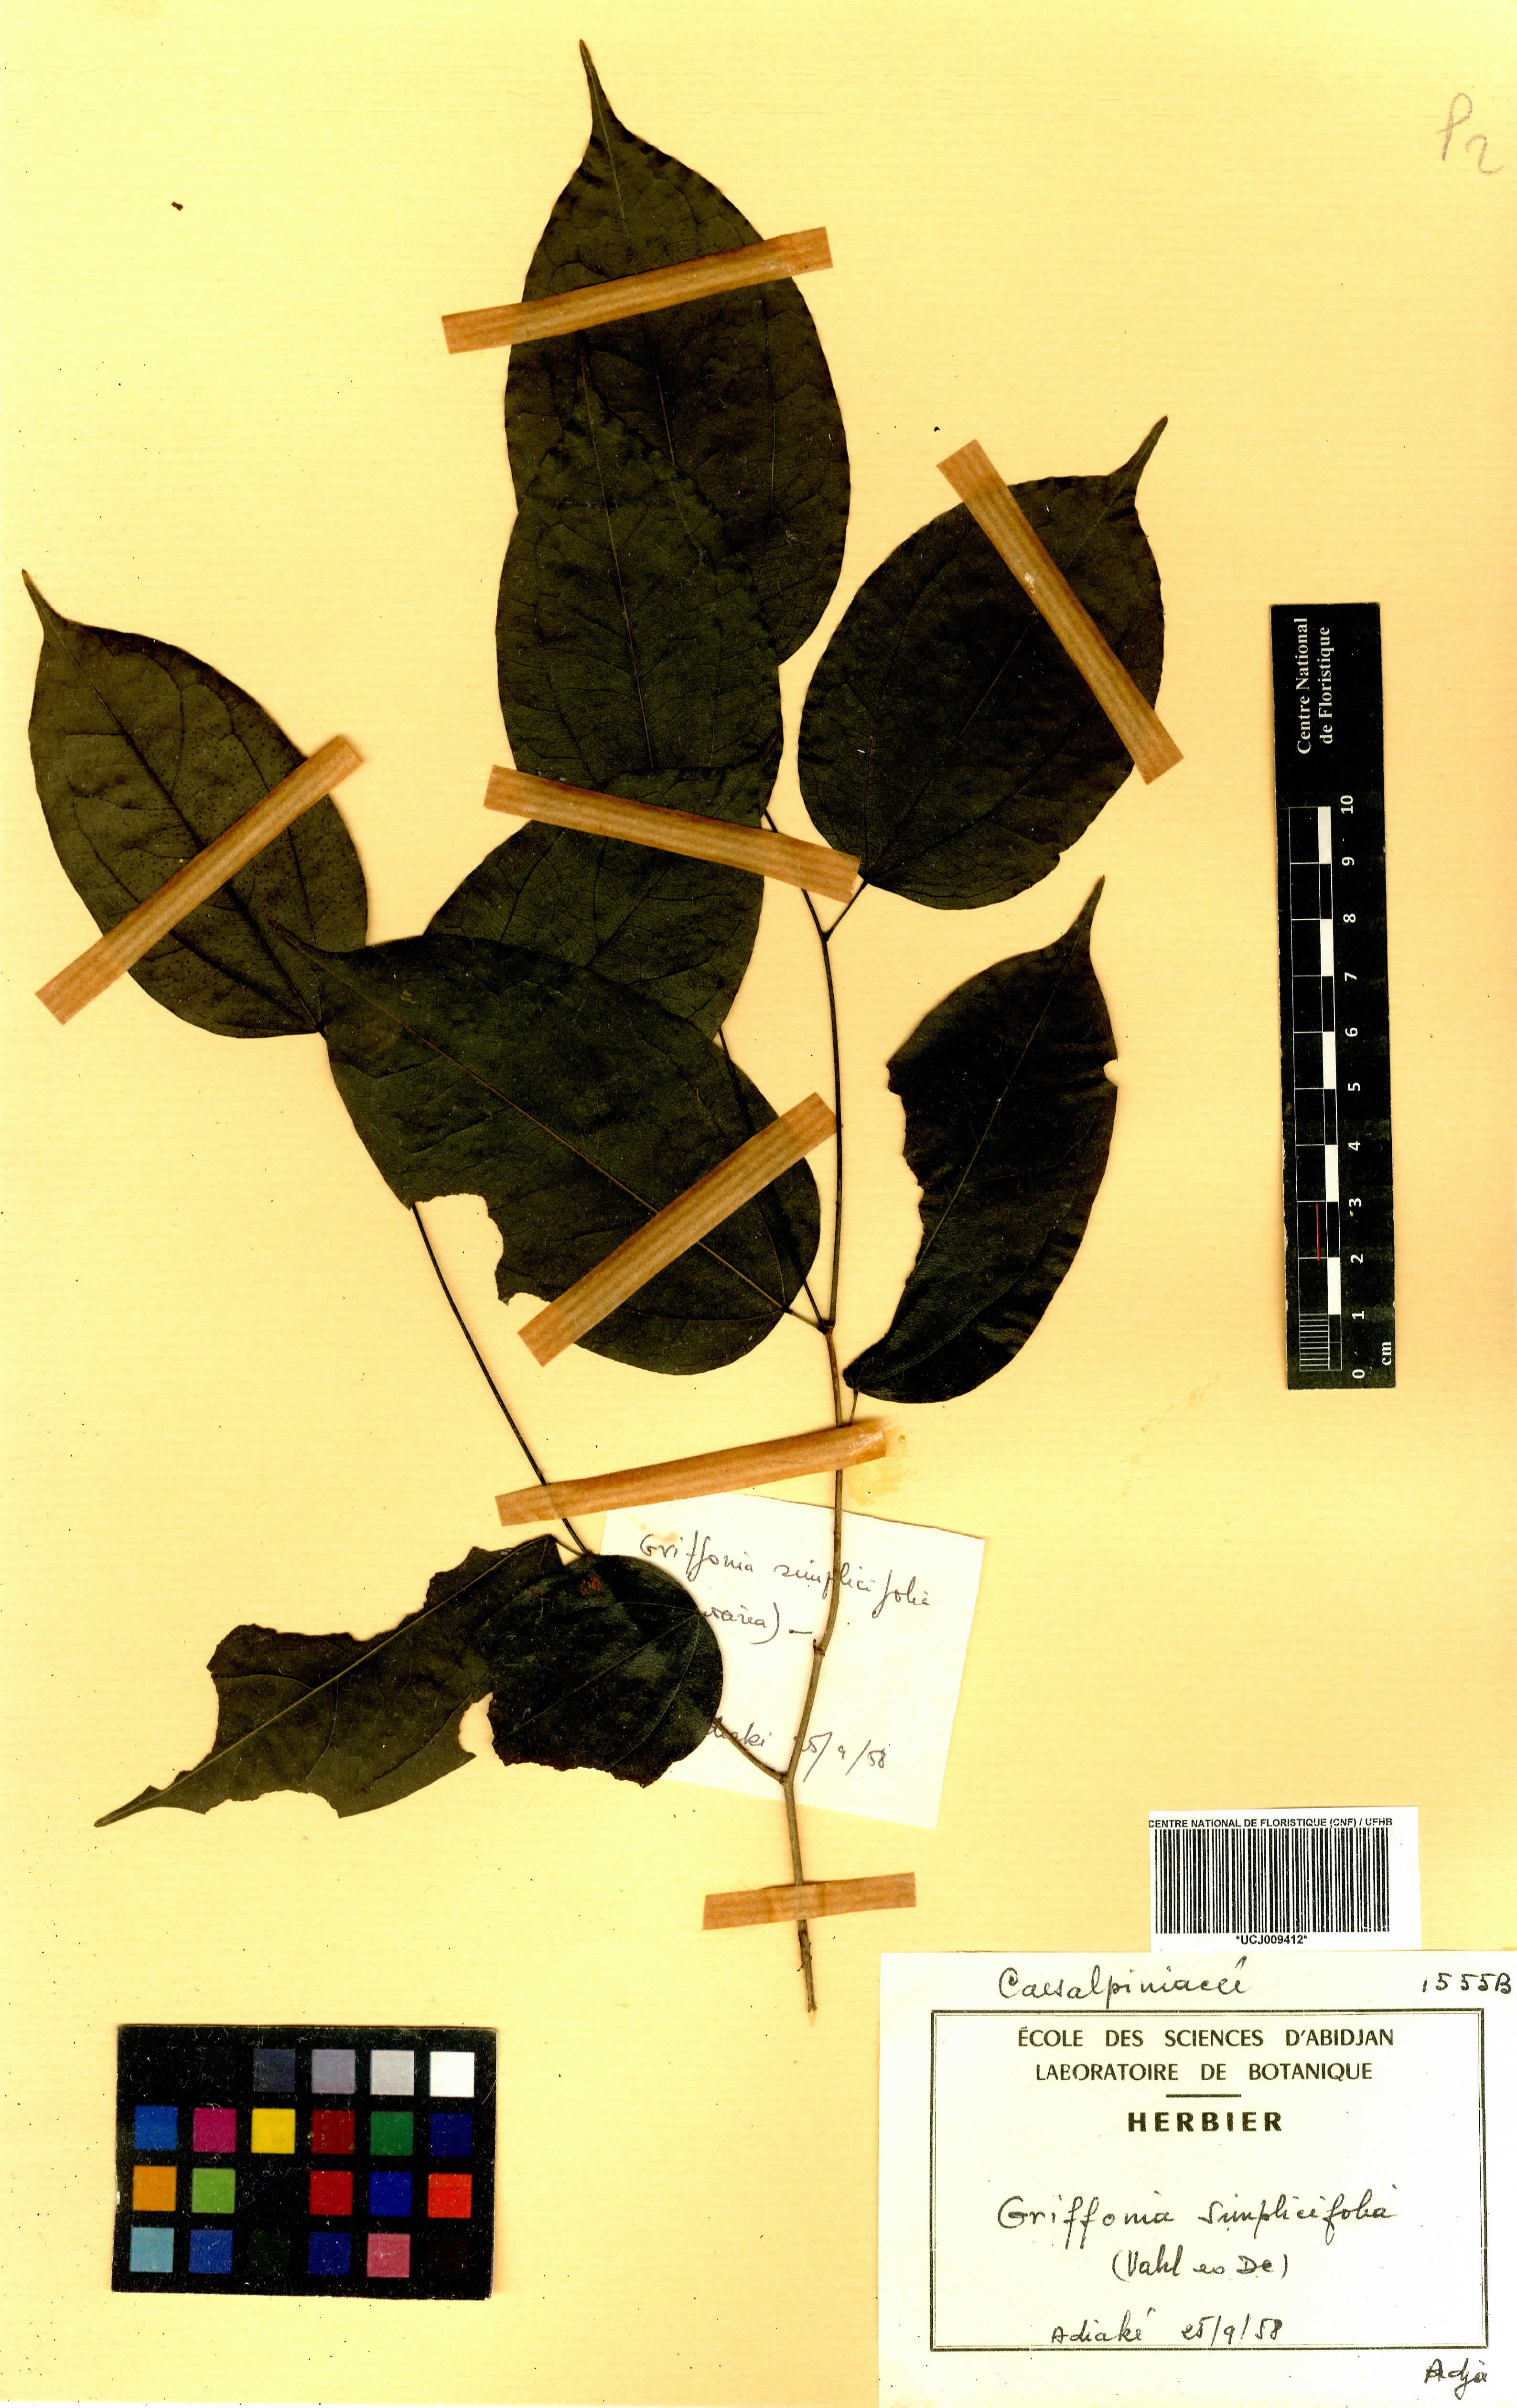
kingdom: Plantae
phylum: Tracheophyta
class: Magnoliopsida
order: Fabales
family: Fabaceae
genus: Griffonia
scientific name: Griffonia simplicifolia
